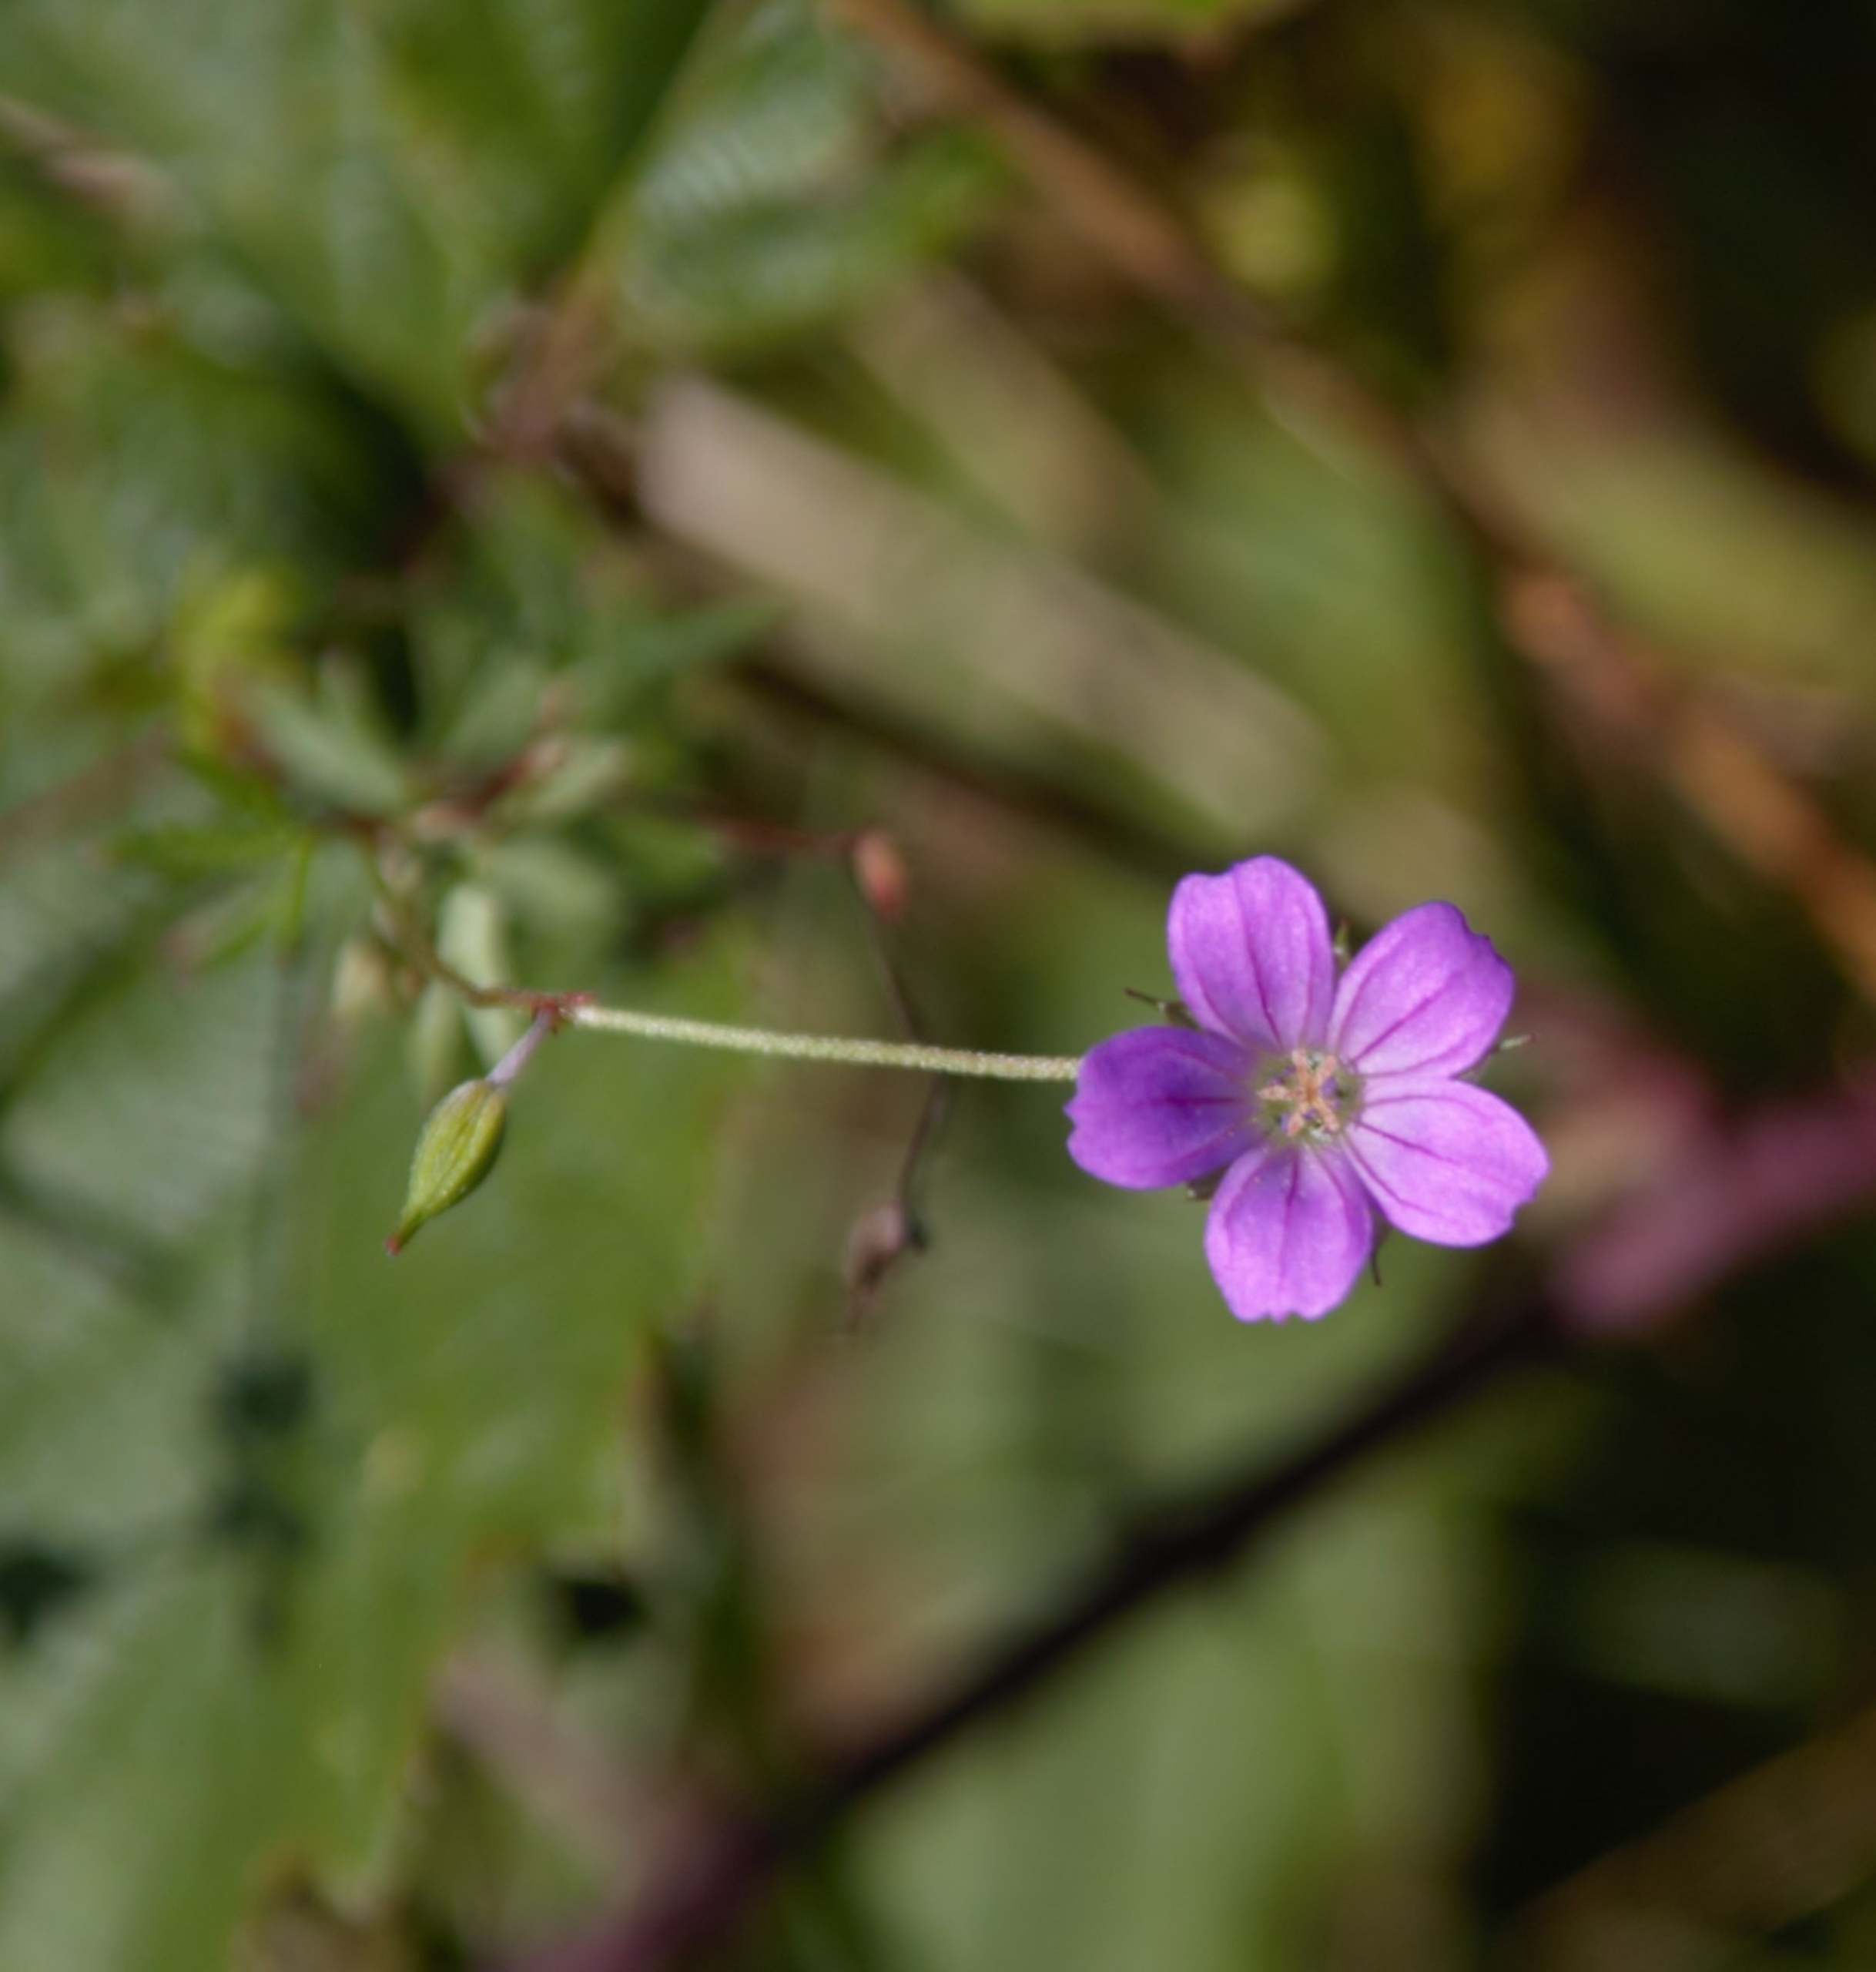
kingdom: Plantae
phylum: Tracheophyta
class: Magnoliopsida
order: Geraniales
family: Geraniaceae
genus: Geranium
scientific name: Geranium columbinum
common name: Storbægret storkenæb
